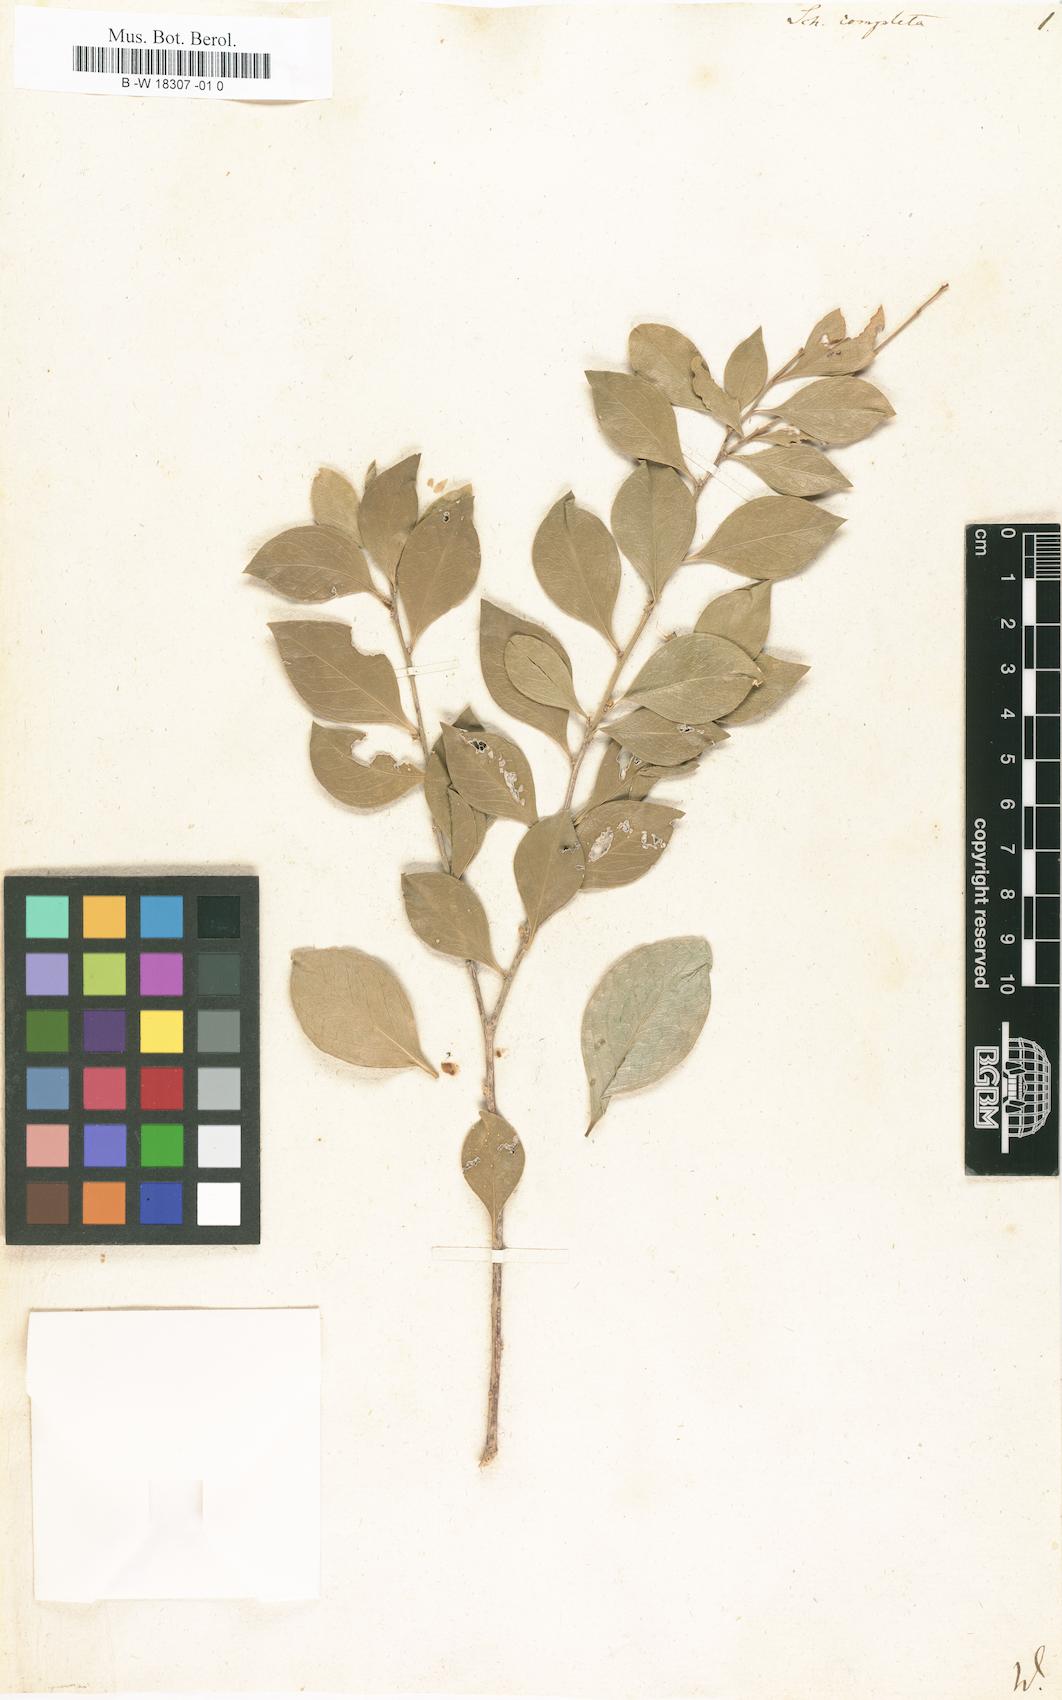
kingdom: Plantae
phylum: Tracheophyta
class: Magnoliopsida
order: Celastrales
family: Celastraceae
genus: Schaefferia
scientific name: Schaefferia frutescens
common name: Boxwood
